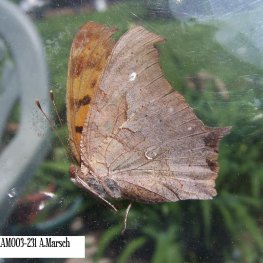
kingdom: Animalia
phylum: Arthropoda
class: Insecta
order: Lepidoptera
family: Nymphalidae
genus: Polygonia
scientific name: Polygonia interrogationis
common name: Question Mark
